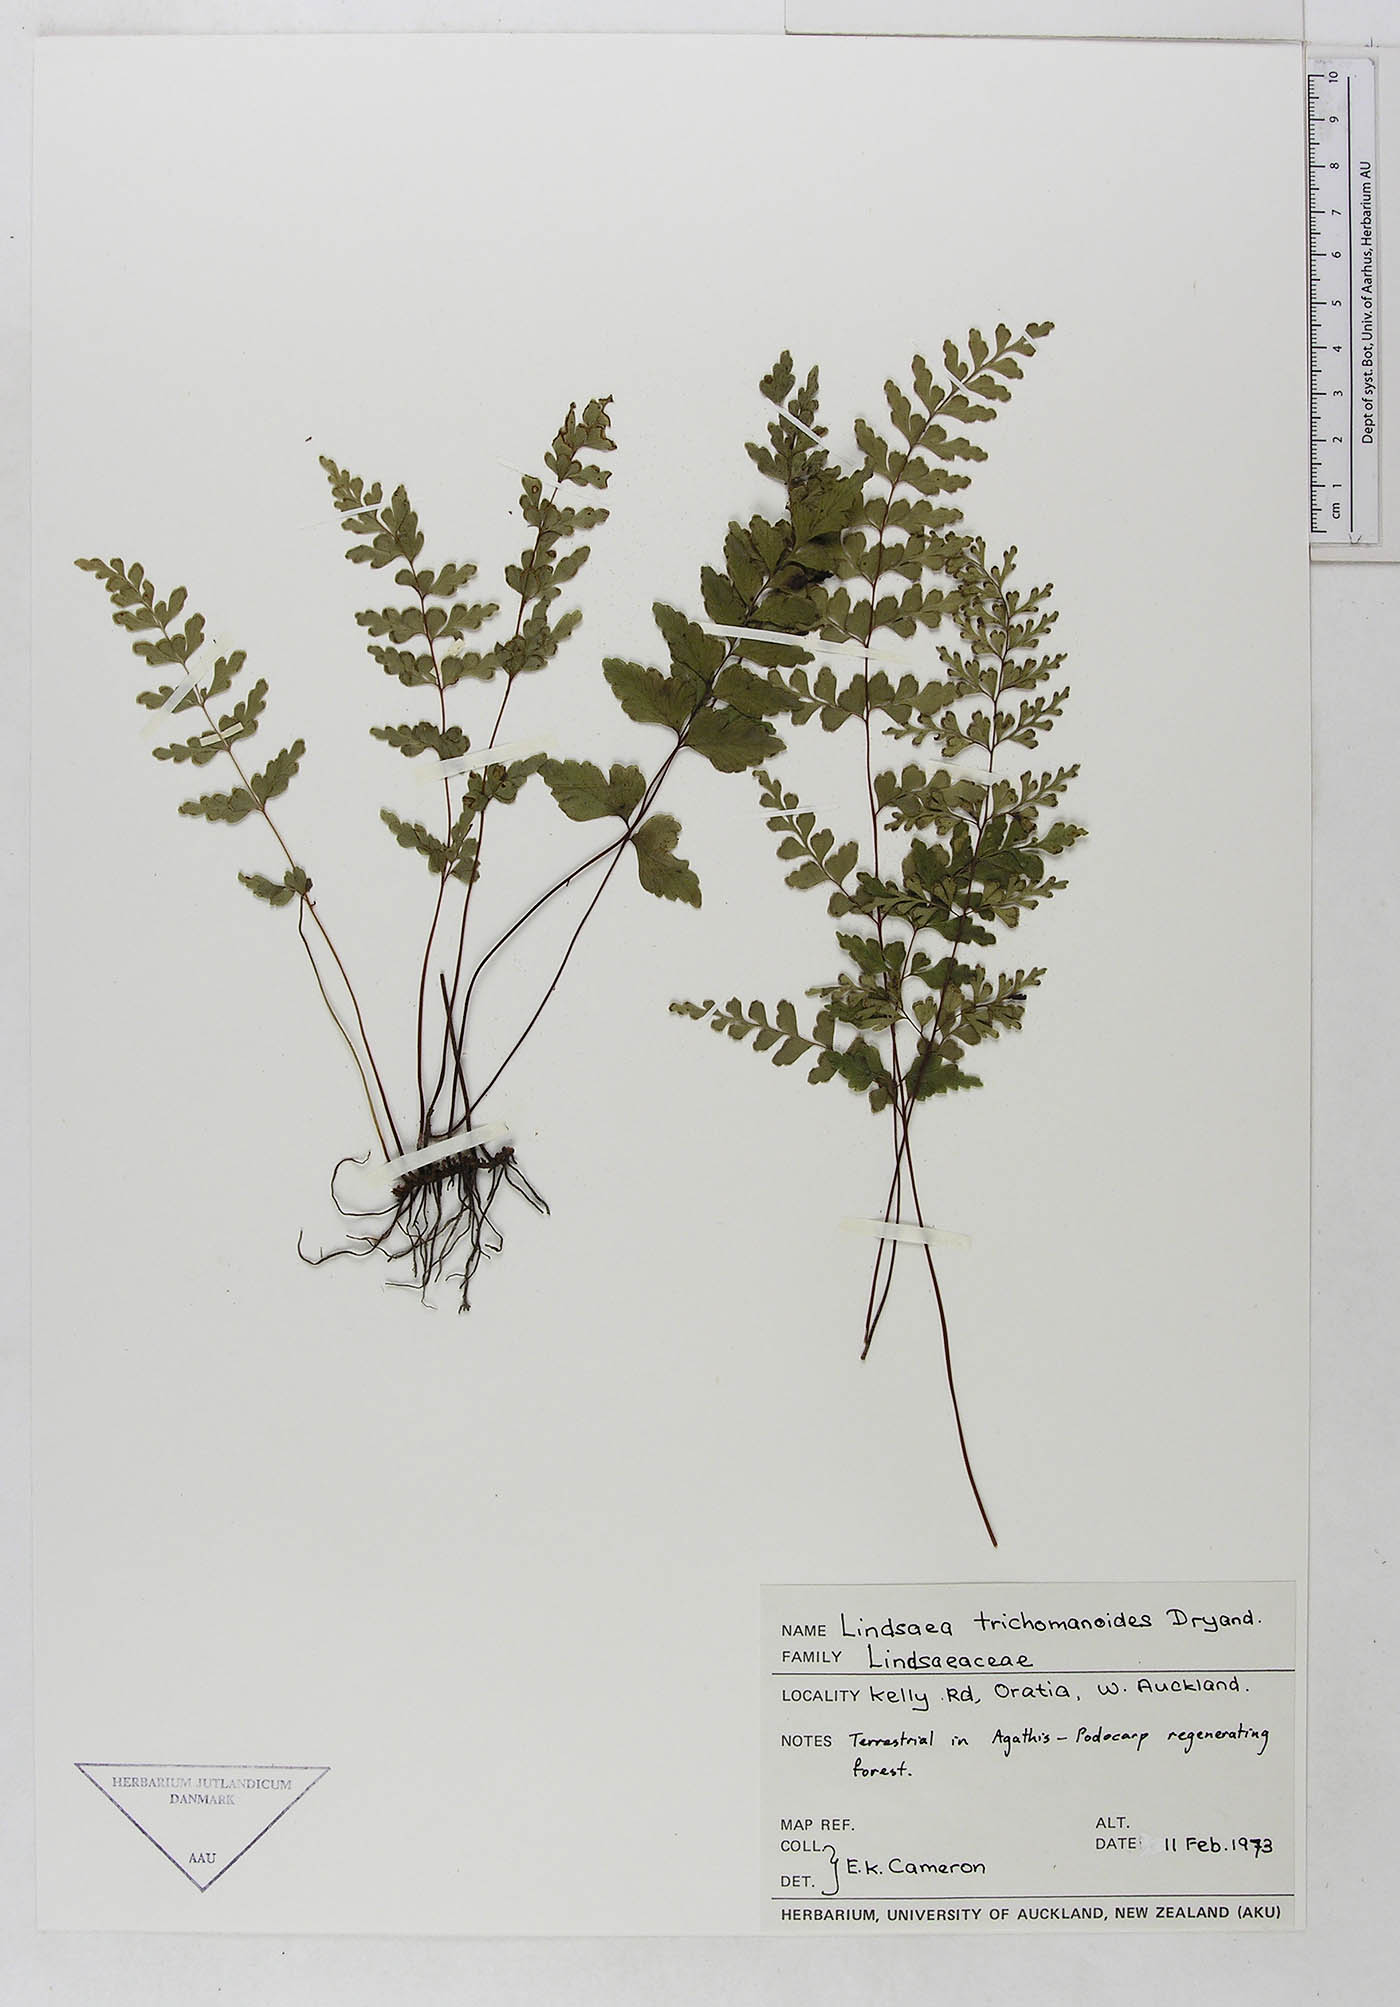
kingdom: Plantae
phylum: Tracheophyta
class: Polypodiopsida
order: Polypodiales
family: Lindsaeaceae
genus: Lindsaea
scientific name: Lindsaea trichomanoides
